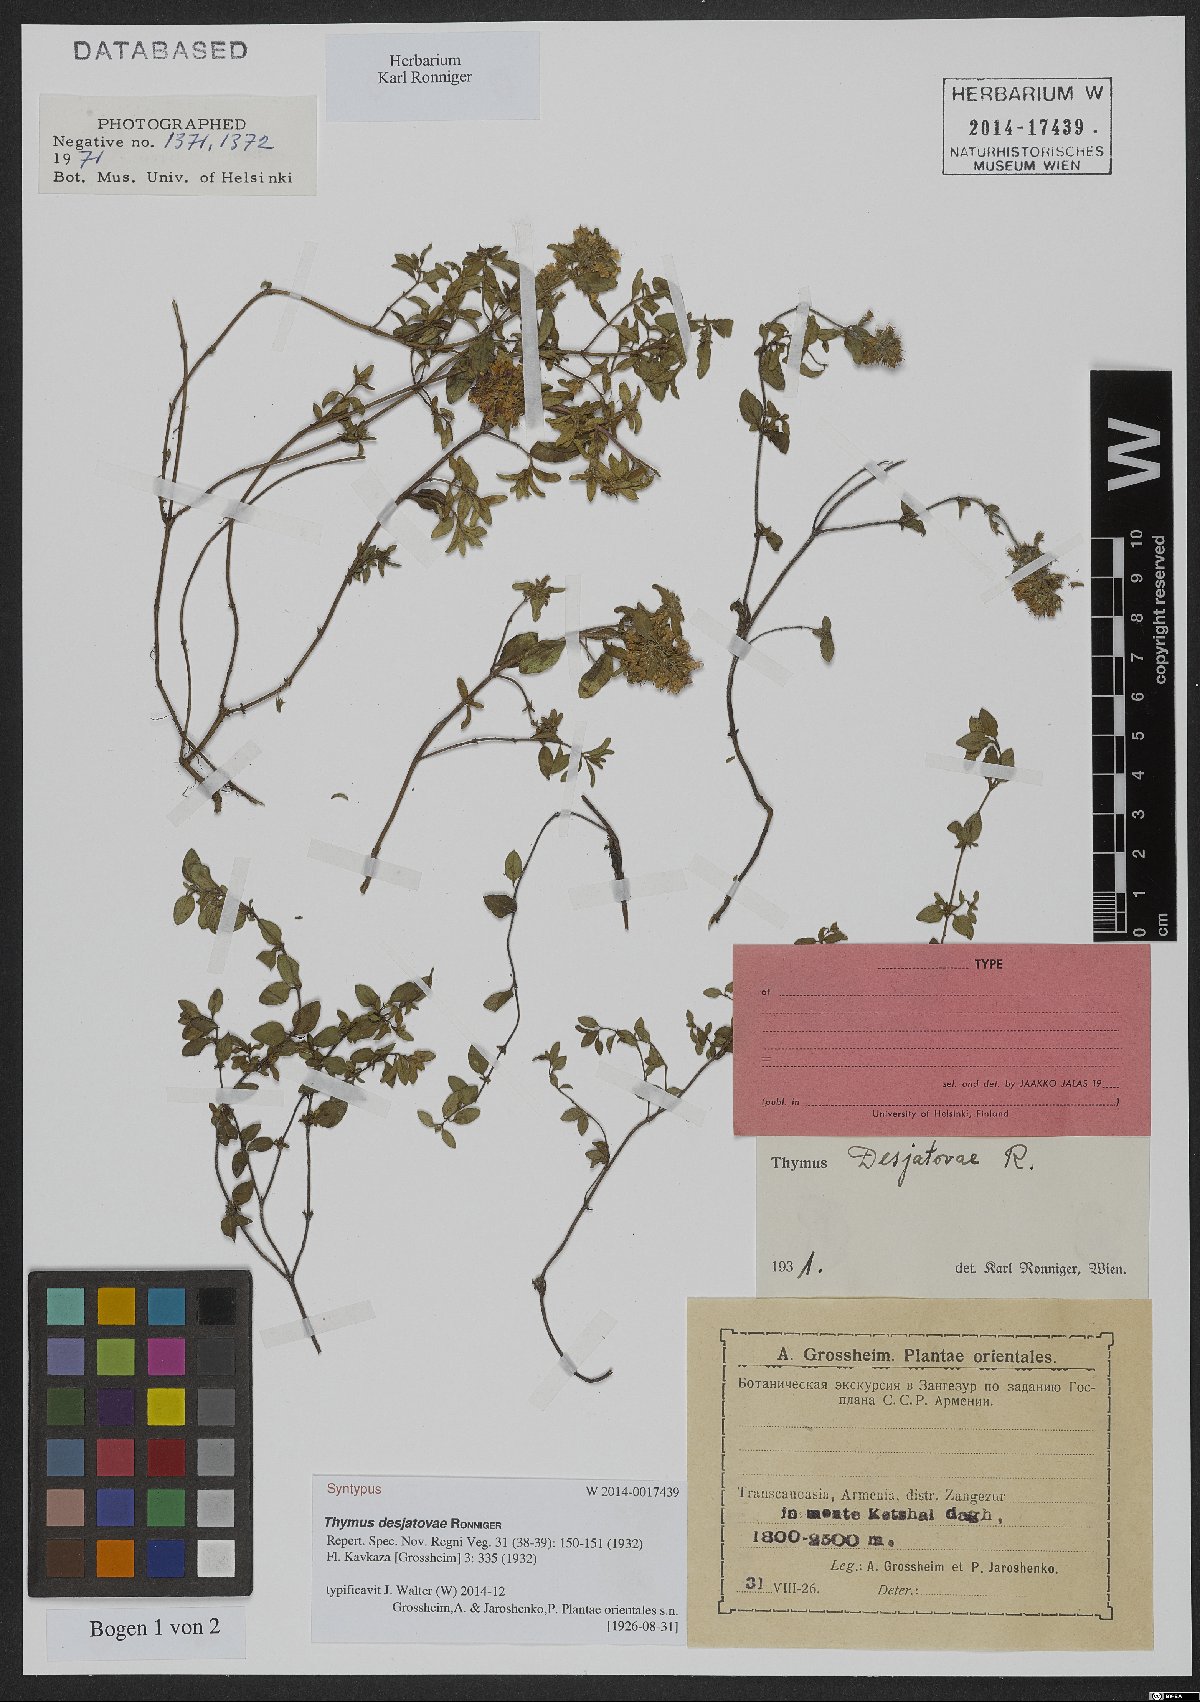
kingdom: Plantae
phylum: Tracheophyta
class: Magnoliopsida
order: Lamiales
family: Lamiaceae
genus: Thymus
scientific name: Thymus desjatovae
